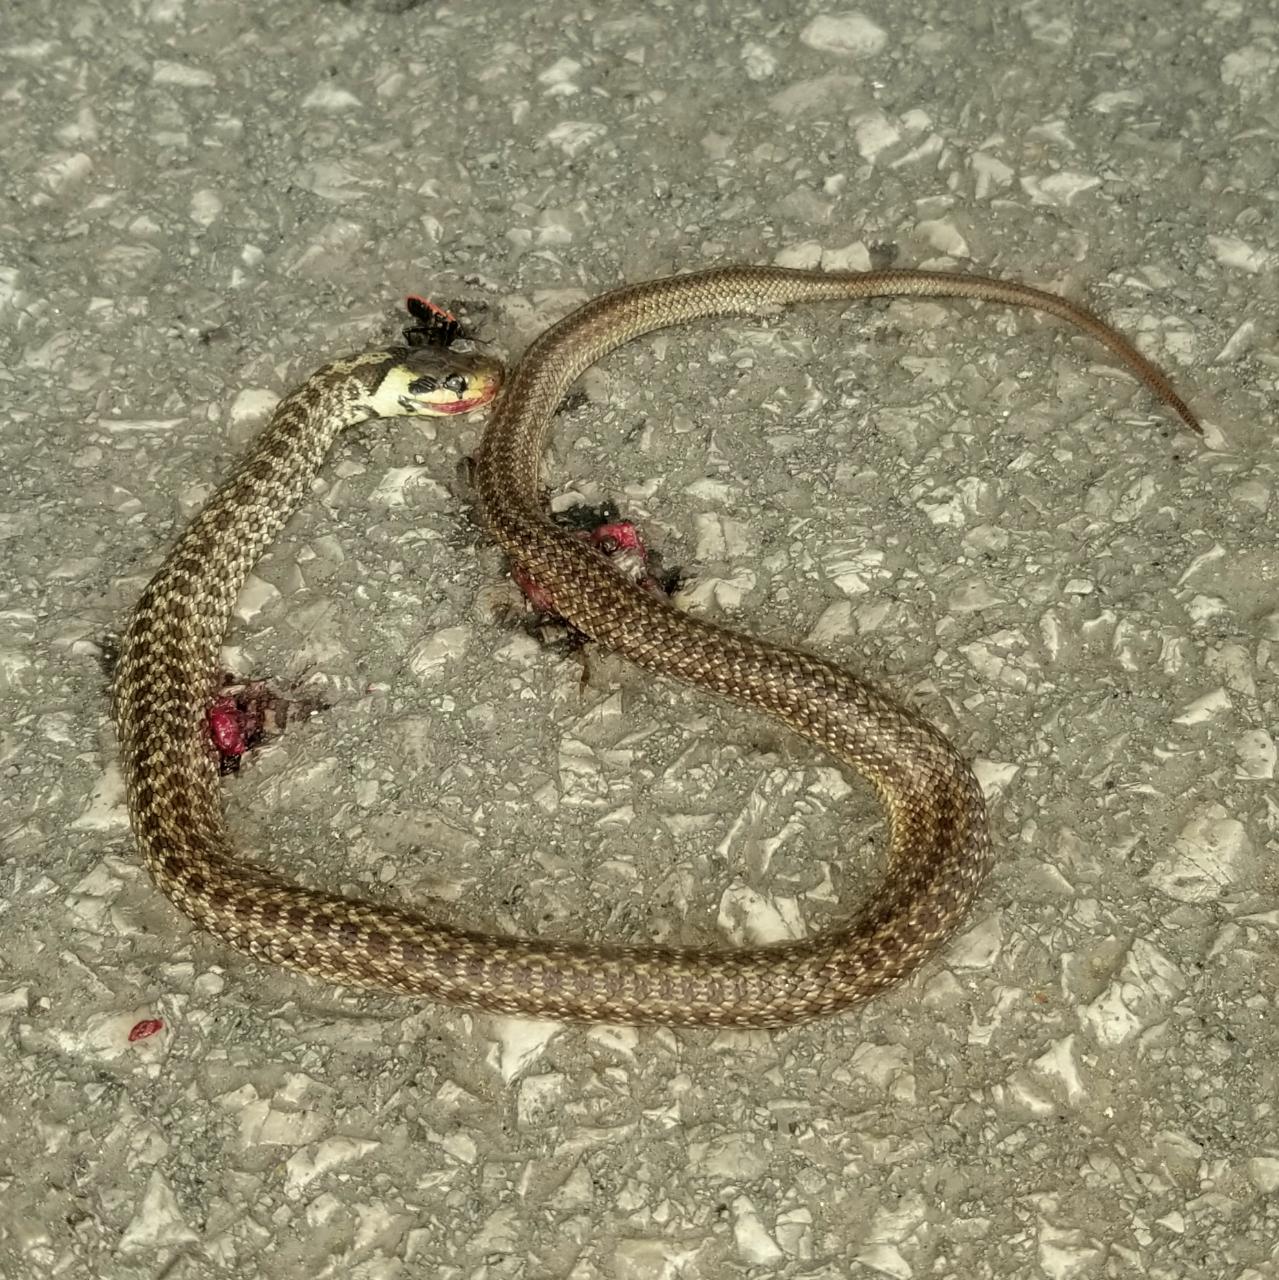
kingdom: Animalia
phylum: Chordata
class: Squamata
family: Colubridae
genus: Zamenis
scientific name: Zamenis longissimus
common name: Aesculapean snake
